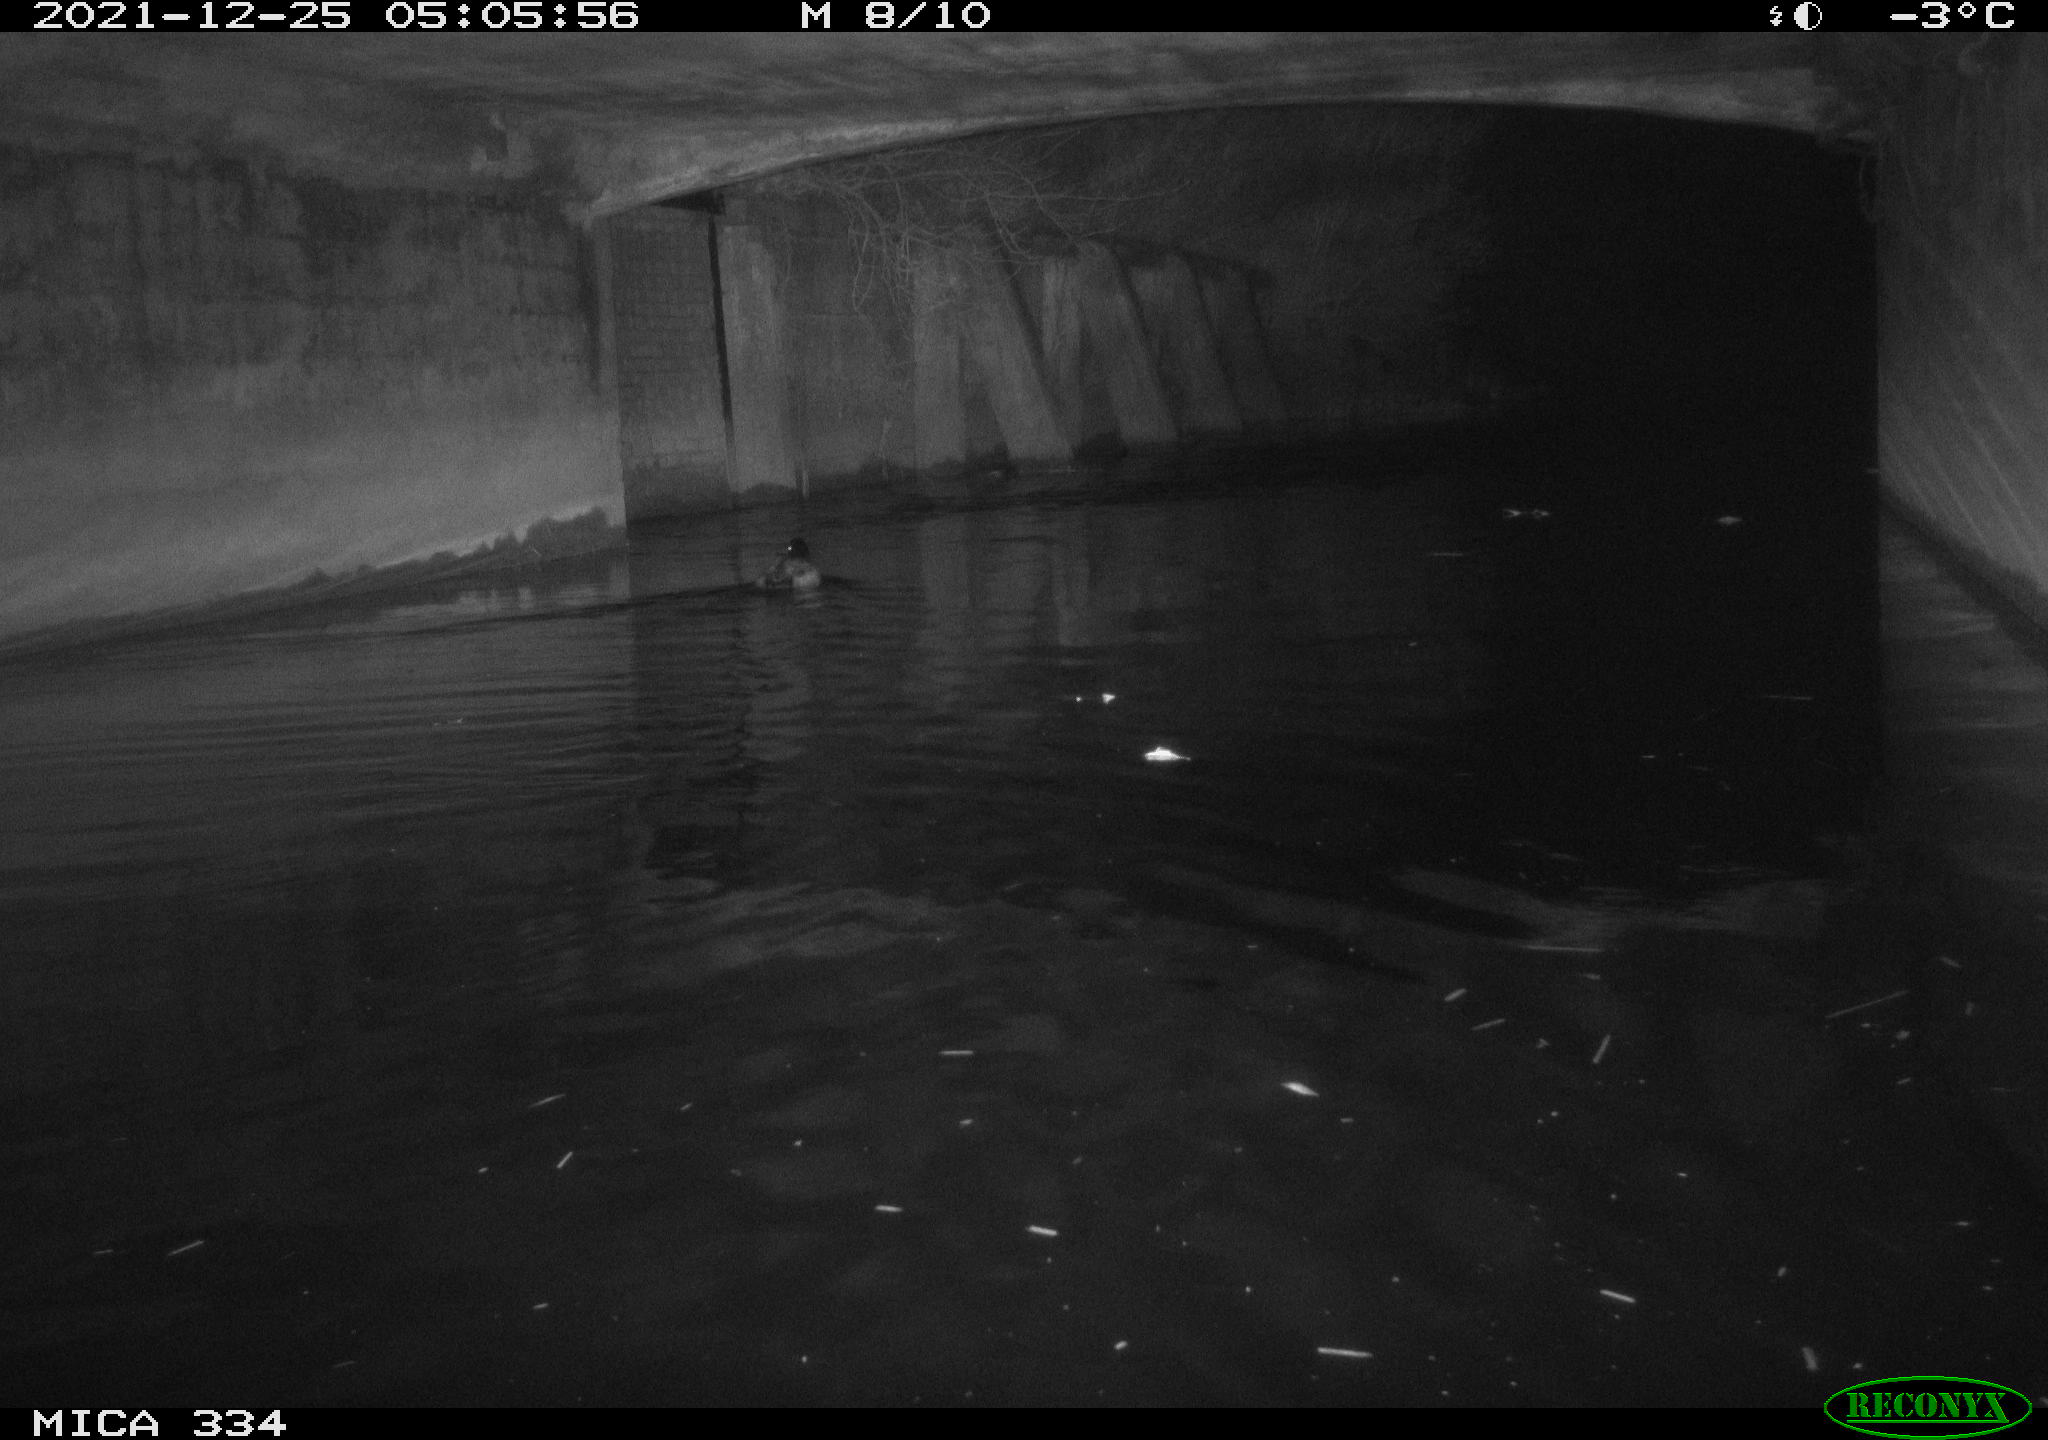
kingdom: Animalia
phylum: Chordata
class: Aves
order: Anseriformes
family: Anatidae
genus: Anas
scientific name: Anas platyrhynchos
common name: Mallard
